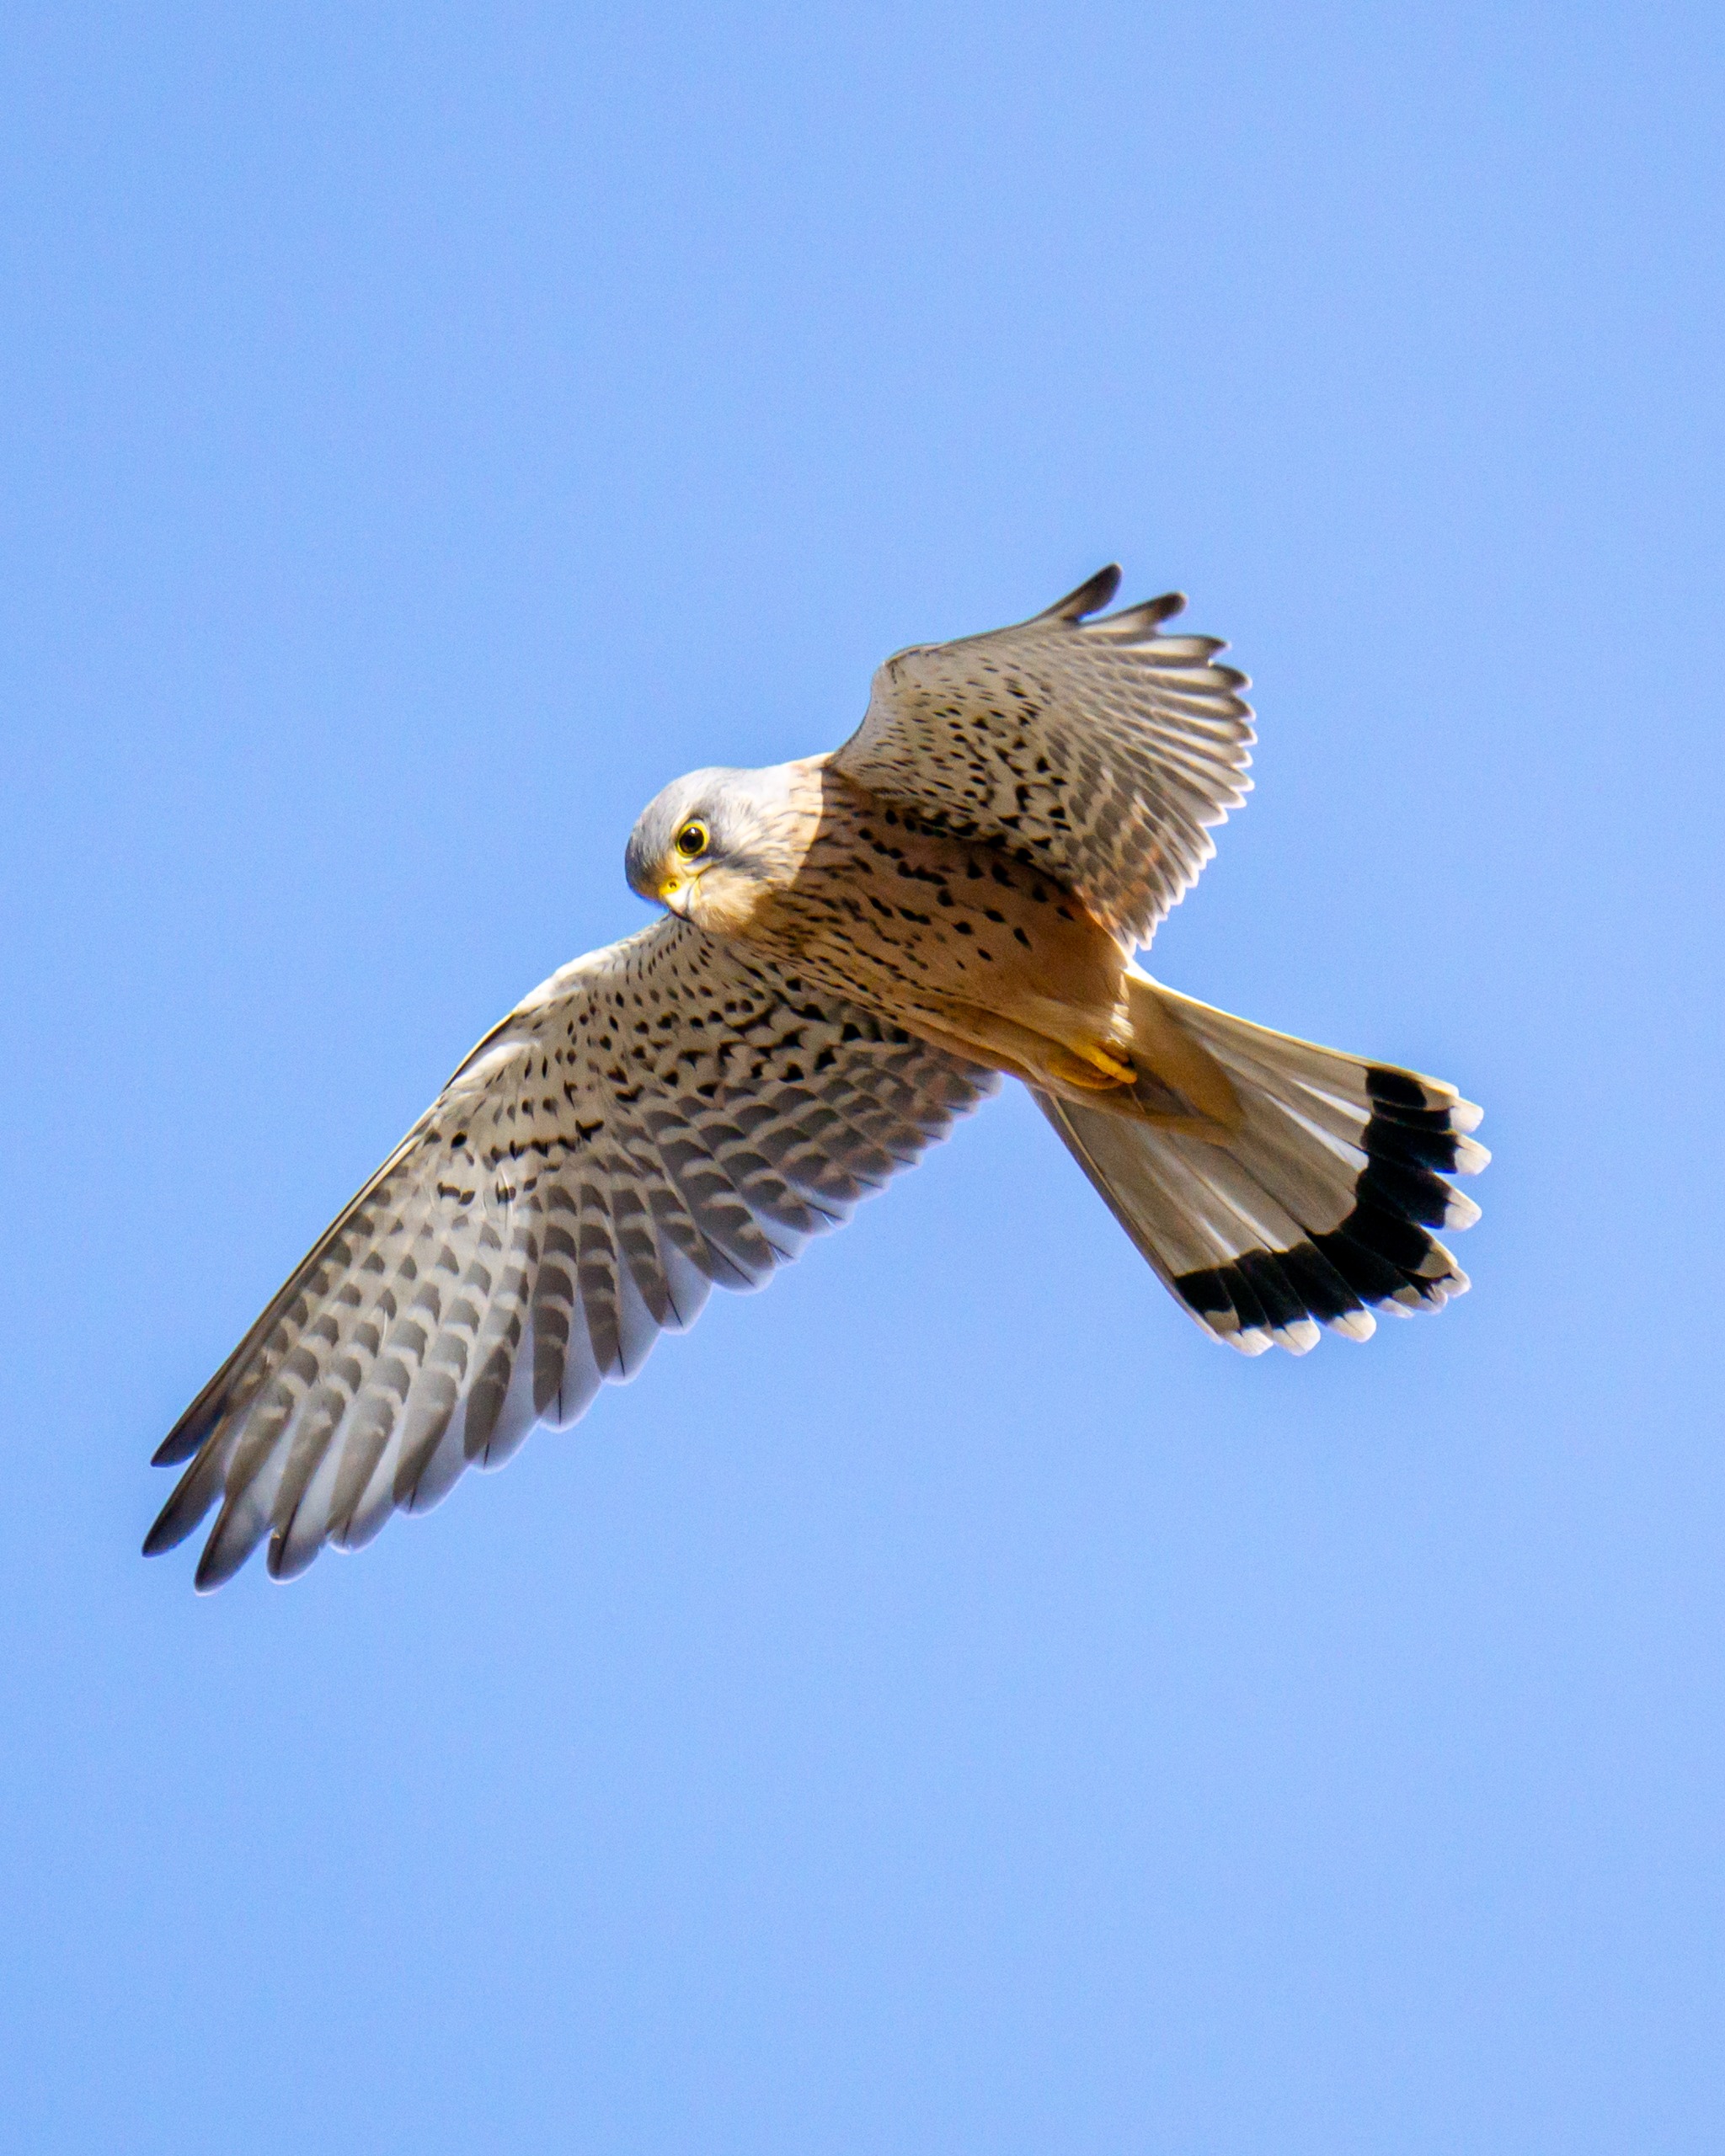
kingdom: Animalia
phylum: Chordata
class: Aves
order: Falconiformes
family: Falconidae
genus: Falco
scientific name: Falco tinnunculus
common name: Tårnfalk
